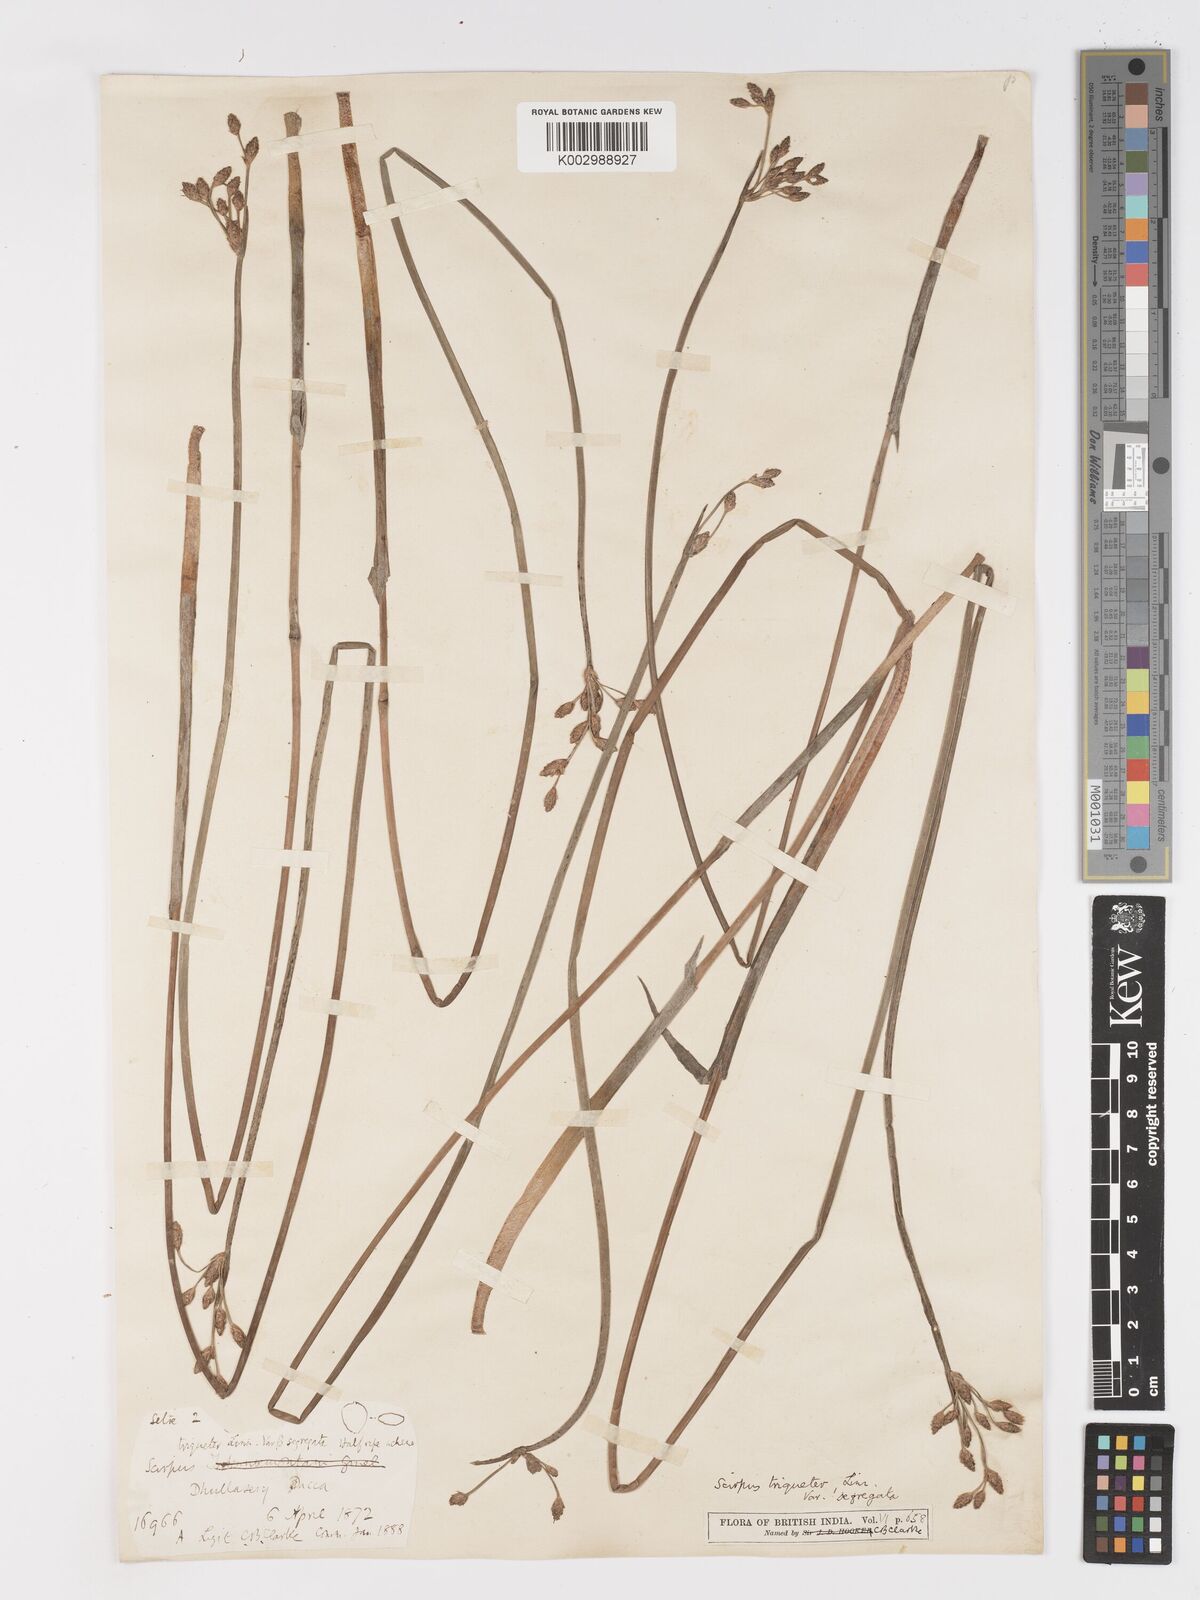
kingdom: Plantae
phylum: Tracheophyta
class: Liliopsida
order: Poales
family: Cyperaceae
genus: Schoenoplectus
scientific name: Schoenoplectus triqueter
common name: Triangular club-rush
